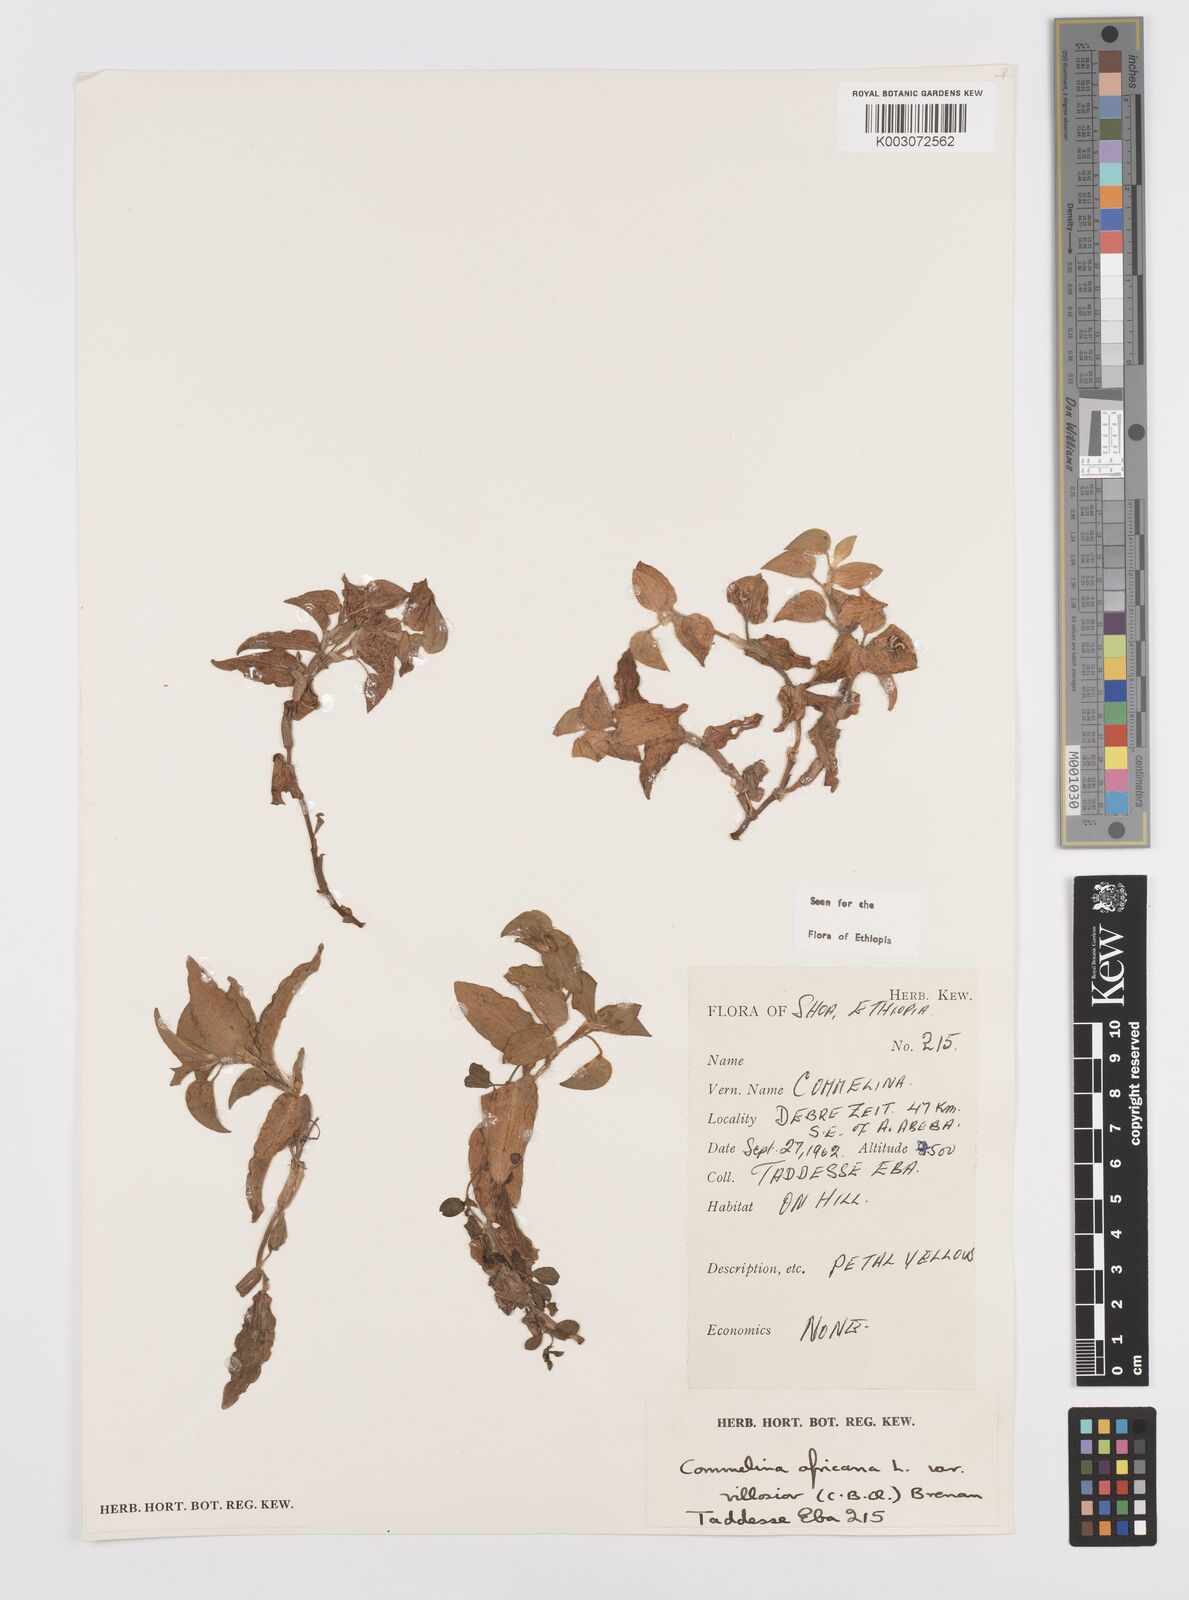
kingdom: Plantae
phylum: Tracheophyta
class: Liliopsida
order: Commelinales
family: Commelinaceae
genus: Commelina
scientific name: Commelina africana
